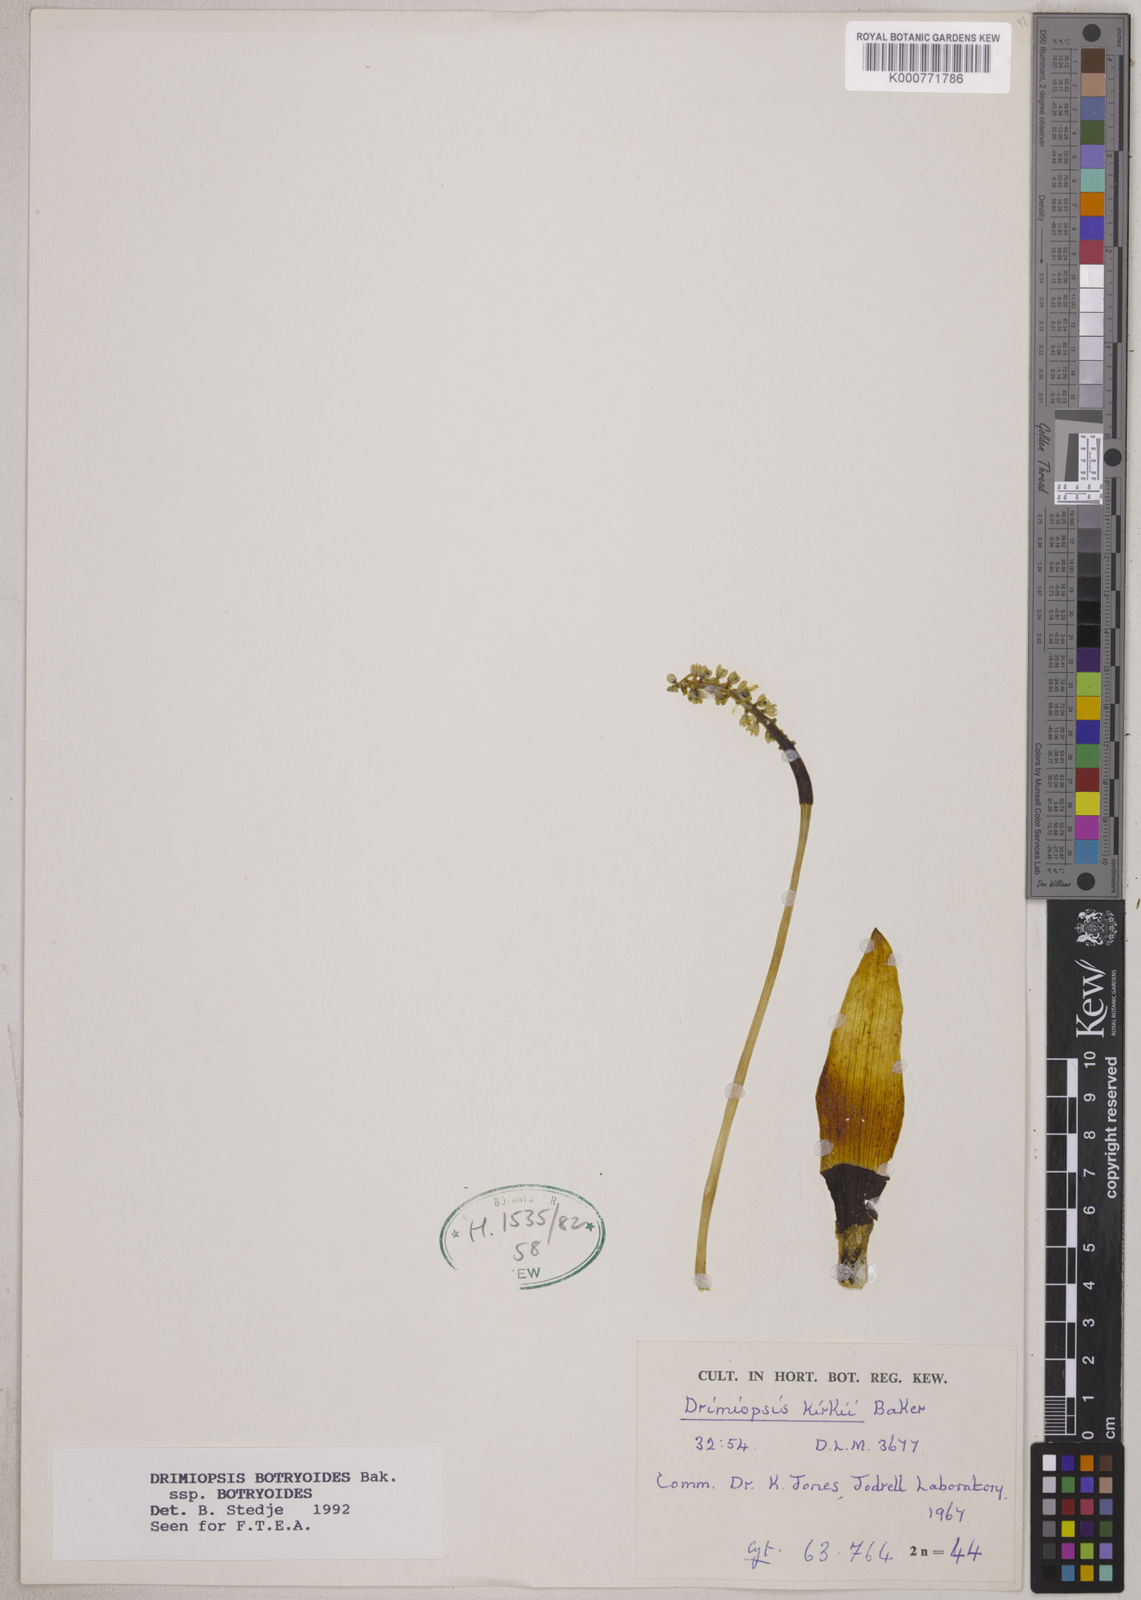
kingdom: Plantae
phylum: Tracheophyta
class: Liliopsida
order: Asparagales
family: Asparagaceae
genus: Drimiopsis
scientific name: Drimiopsis botryoides
